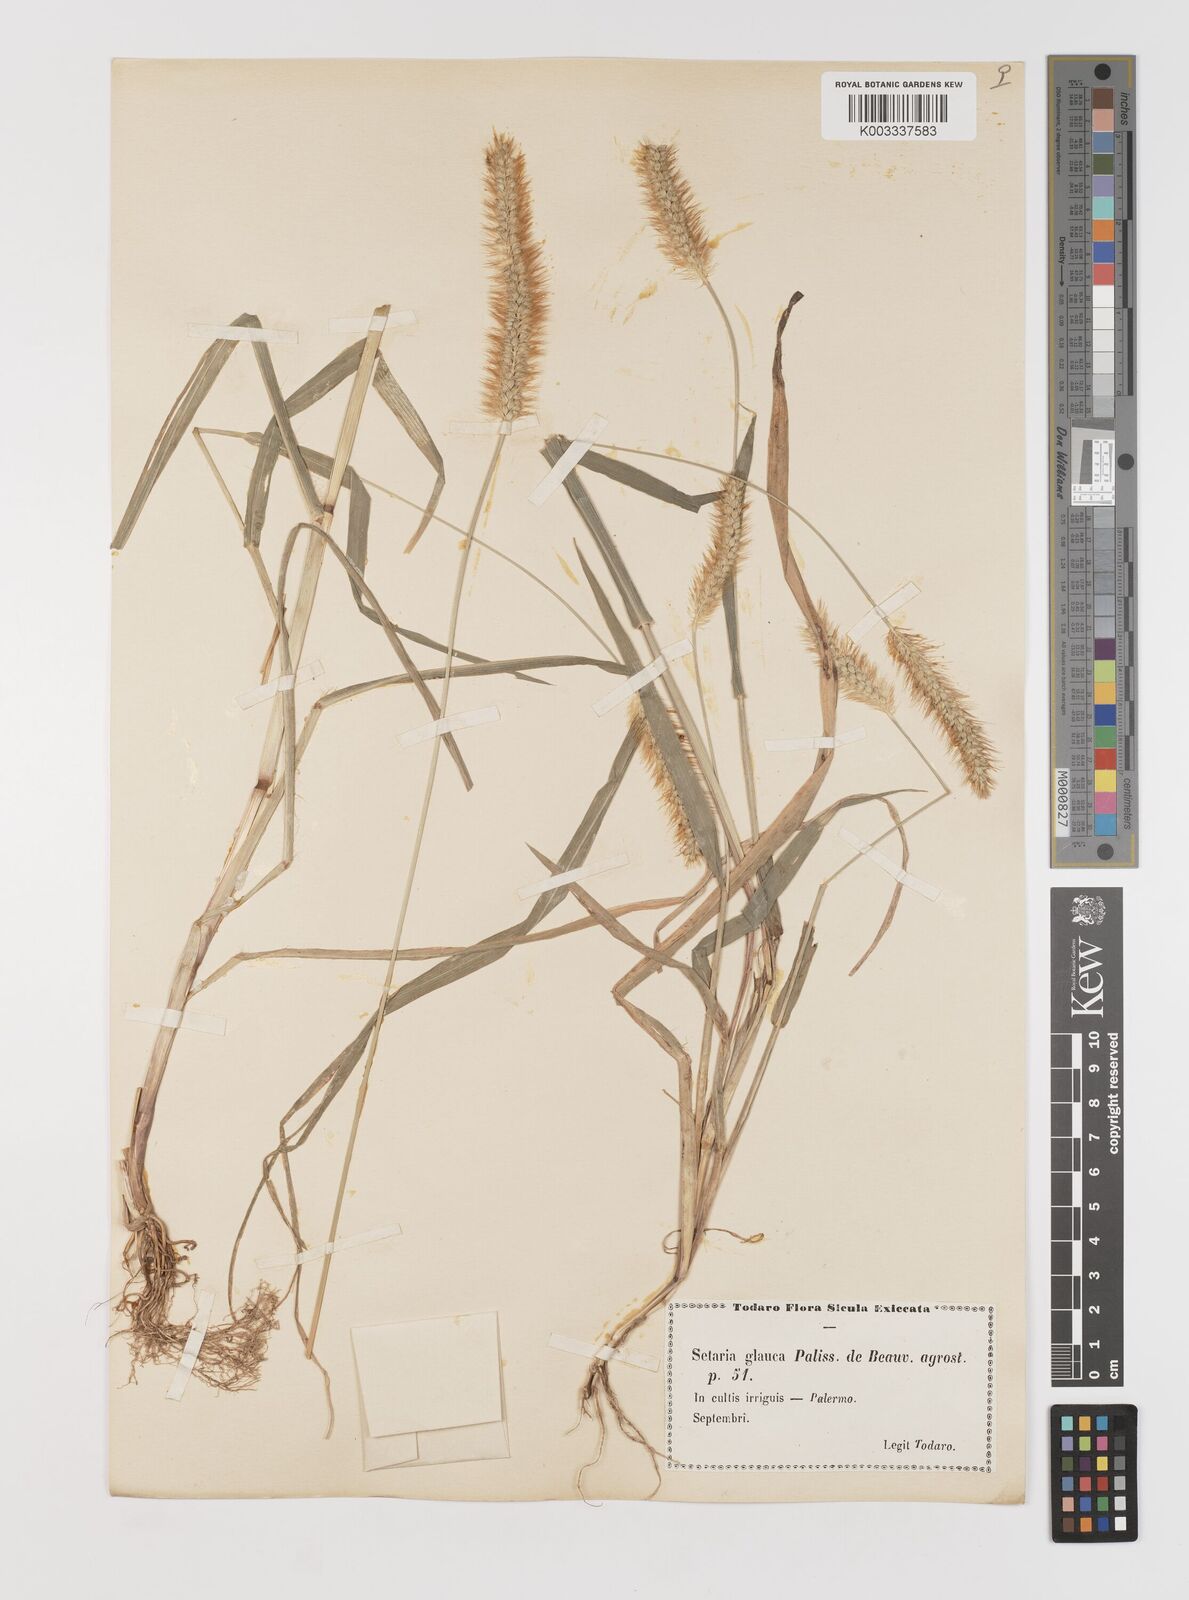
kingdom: Plantae
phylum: Tracheophyta
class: Liliopsida
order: Poales
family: Poaceae
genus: Setaria
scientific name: Setaria pumila
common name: Yellow bristle-grass
